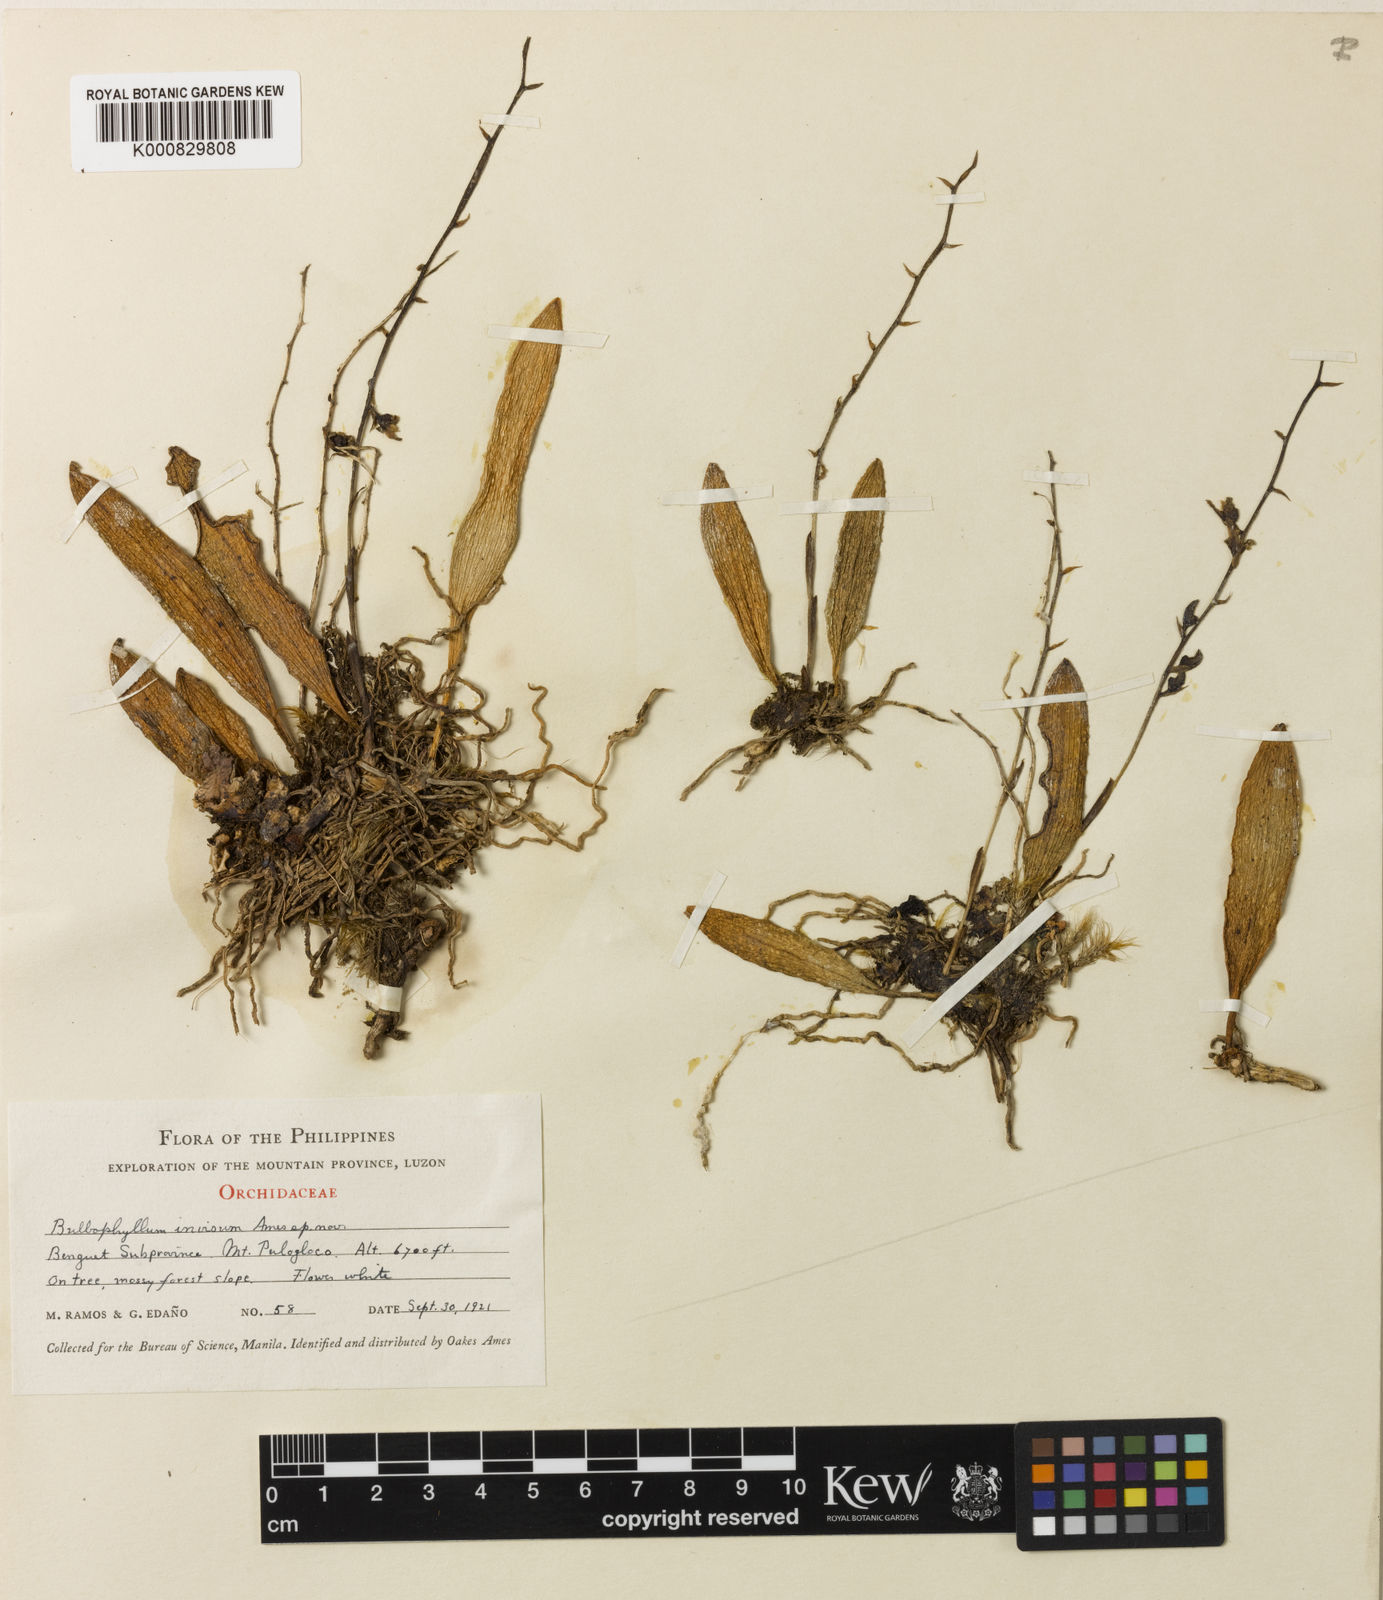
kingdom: Plantae
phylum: Tracheophyta
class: Liliopsida
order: Asparagales
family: Orchidaceae
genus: Bulbophyllum
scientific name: Bulbophyllum invisum
